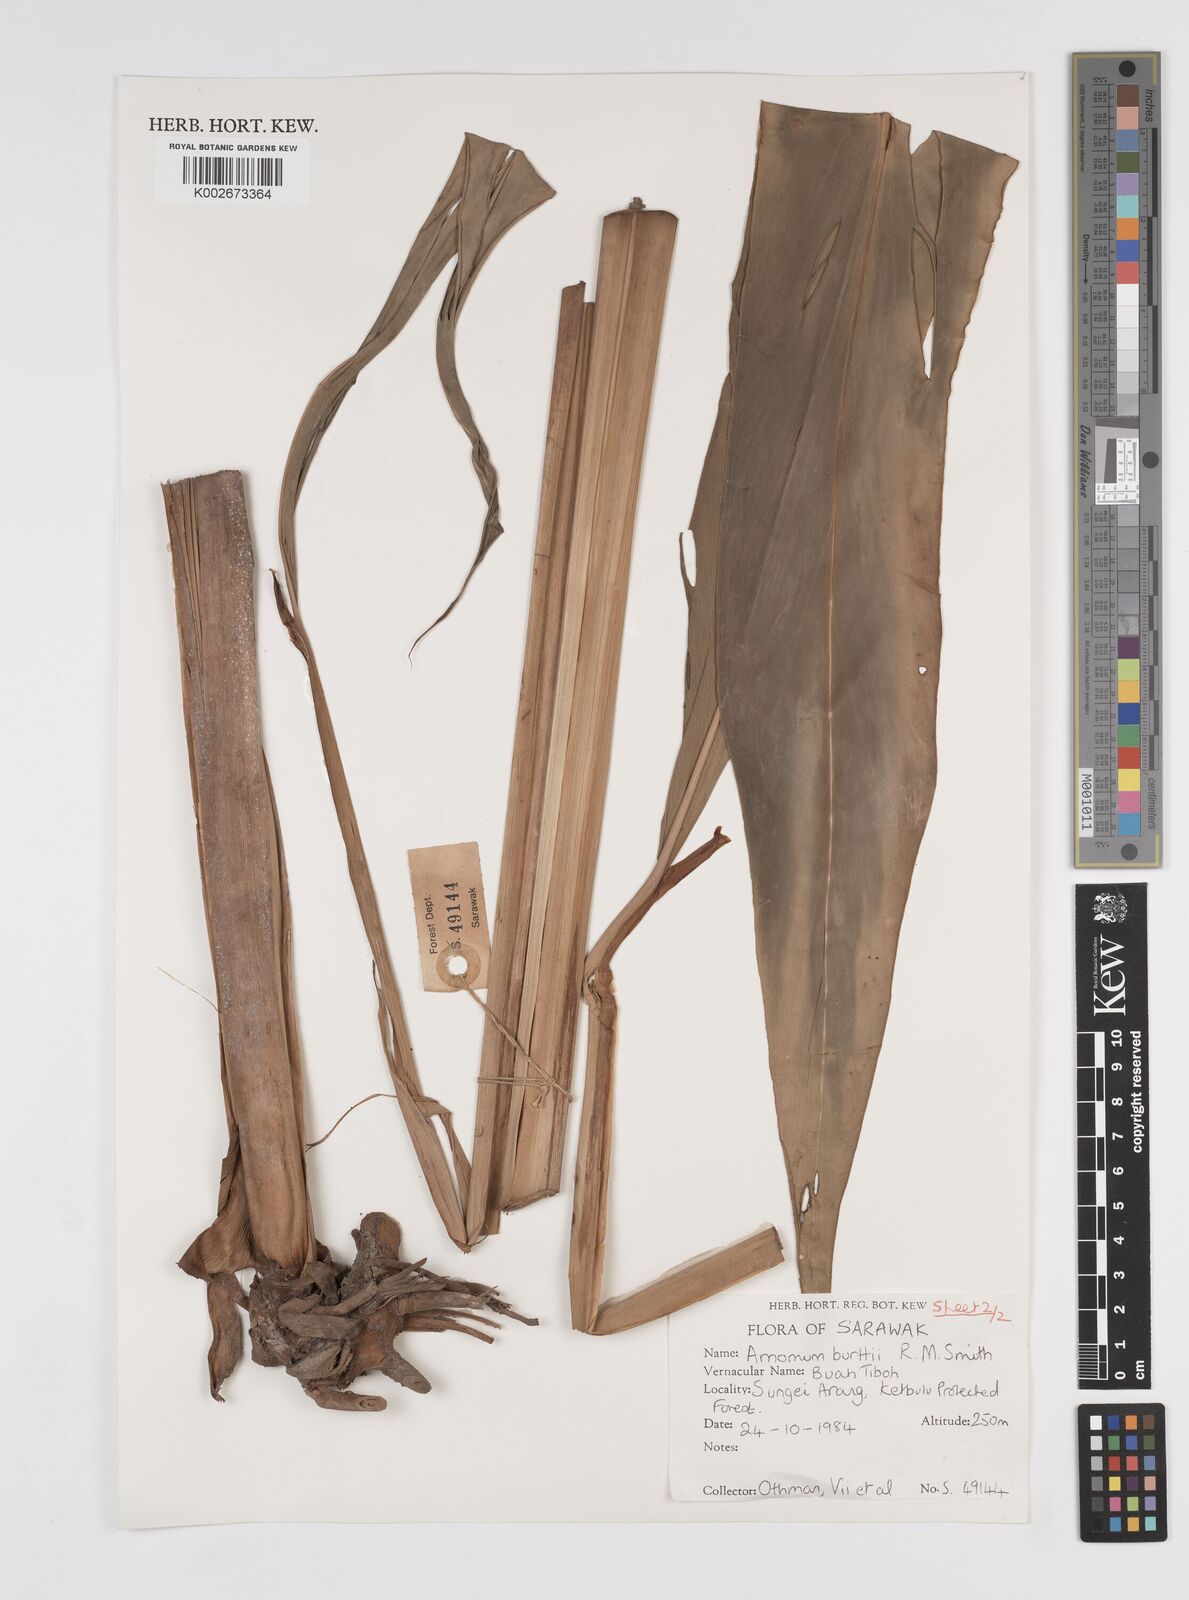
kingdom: Plantae
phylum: Tracheophyta
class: Liliopsida
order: Zingiberales
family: Zingiberaceae
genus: Sulettaria
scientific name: Sulettaria burttii
